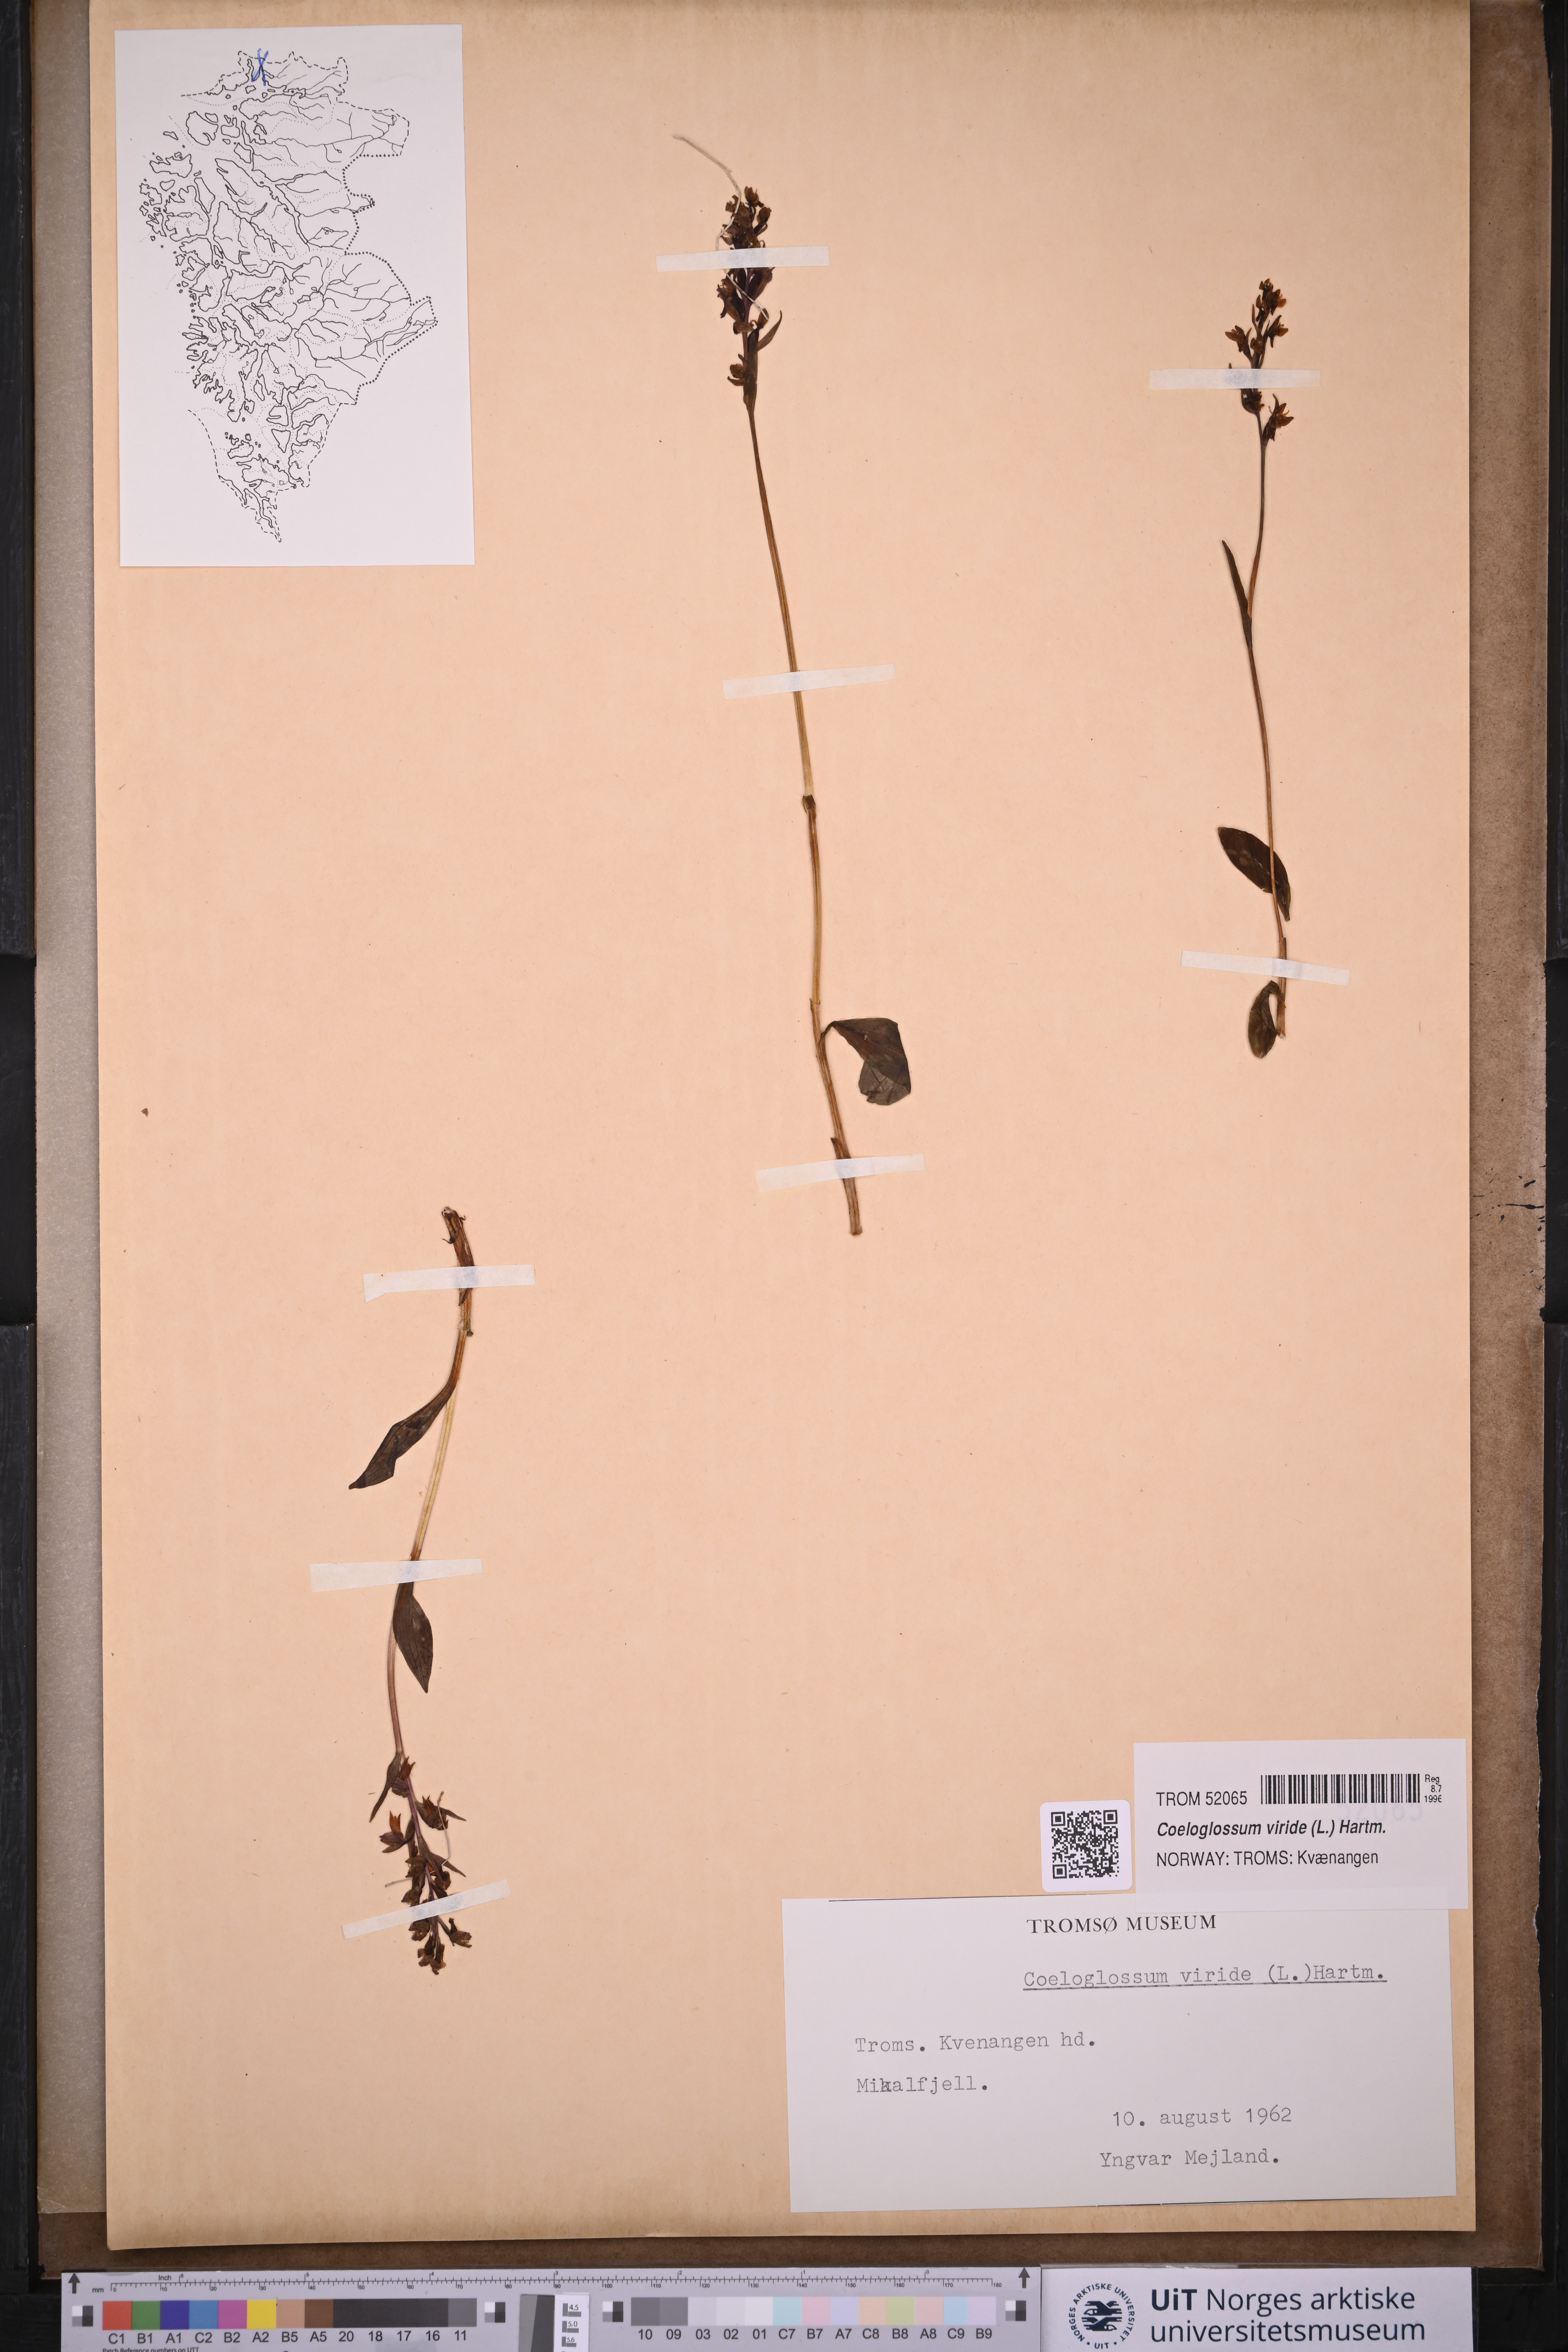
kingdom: Plantae
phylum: Tracheophyta
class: Liliopsida
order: Asparagales
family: Orchidaceae
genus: Dactylorhiza
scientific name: Dactylorhiza viridis
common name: Longbract frog orchid
